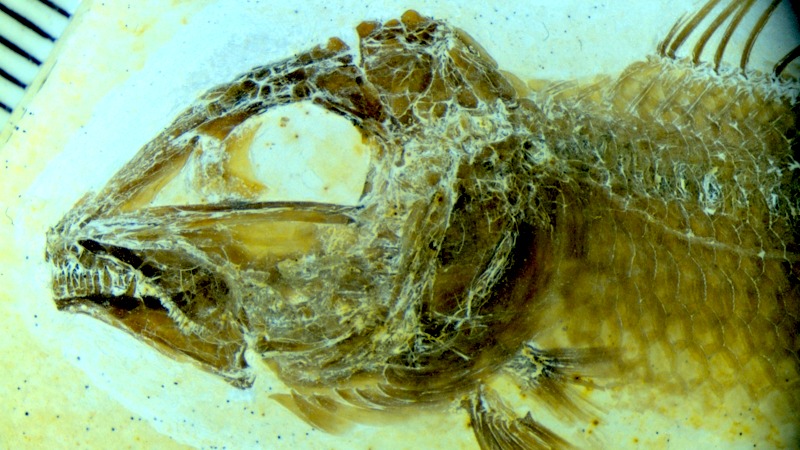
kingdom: Animalia
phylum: Chordata
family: Macrosemiidae
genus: Notagogus
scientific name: Notagogus denticulatus
